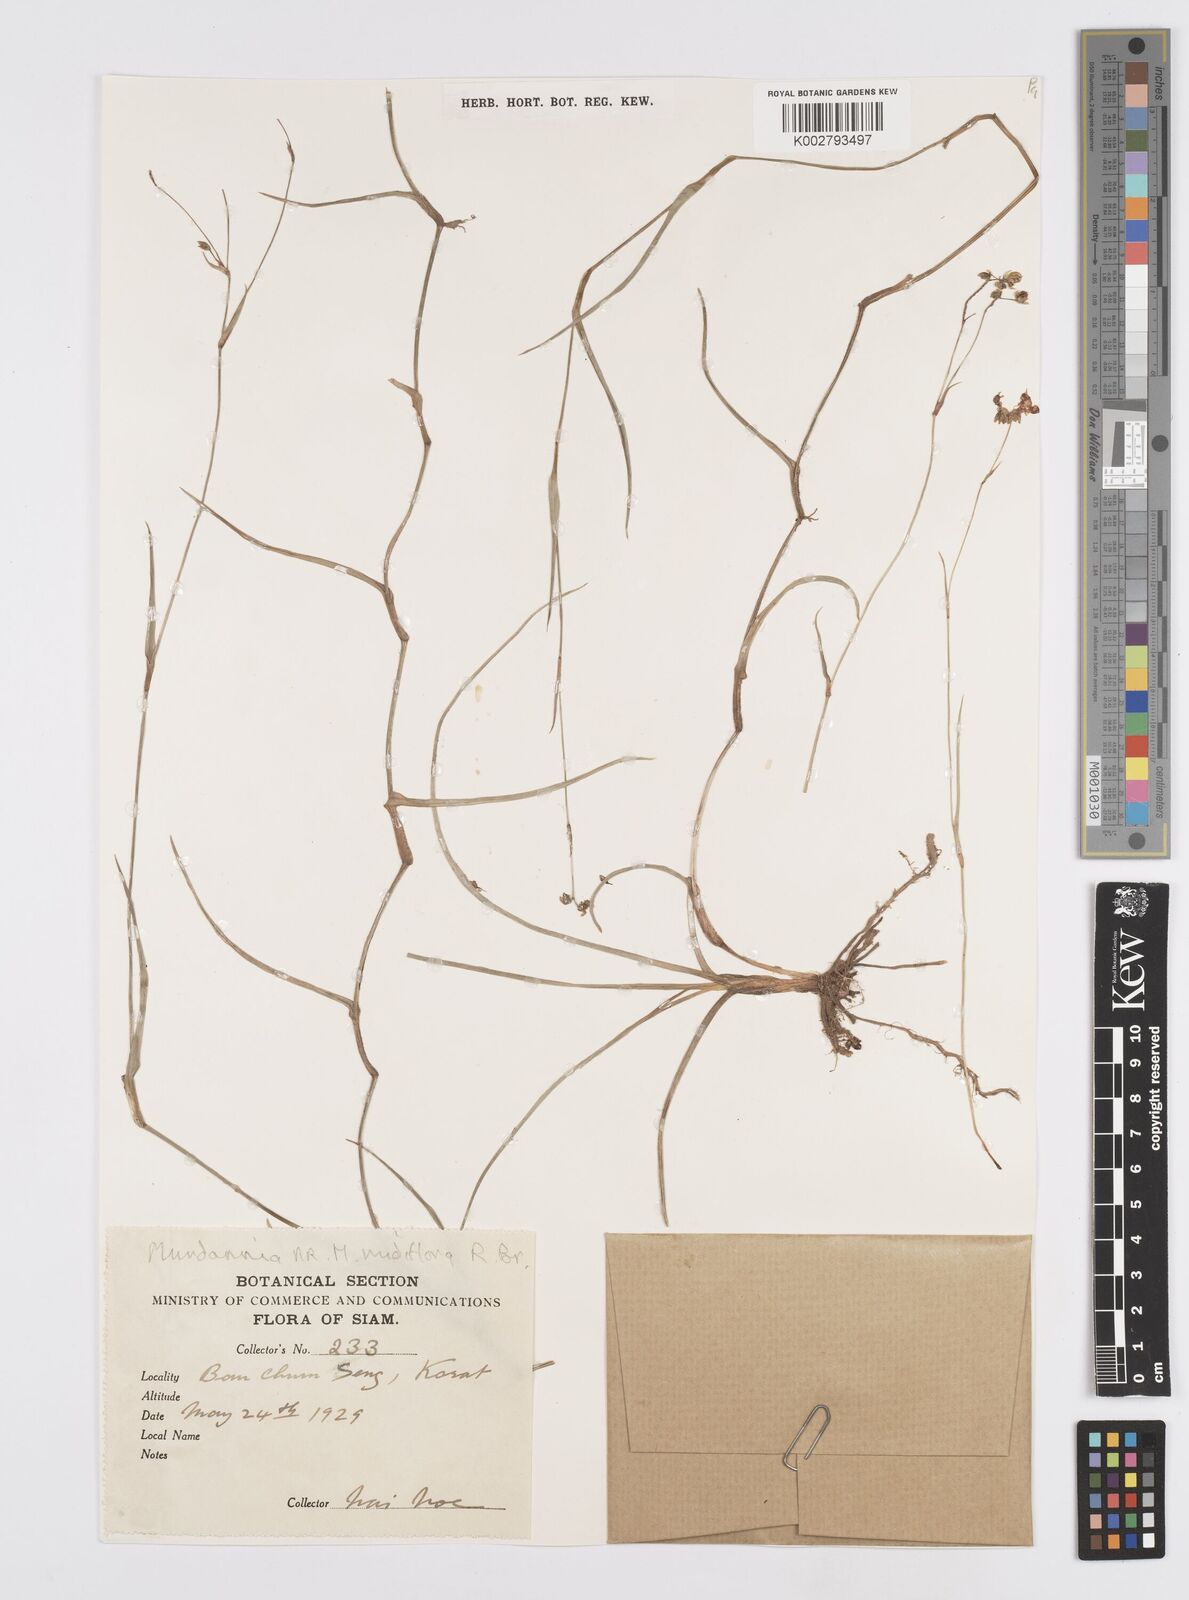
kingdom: Plantae
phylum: Tracheophyta
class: Liliopsida
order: Commelinales
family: Commelinaceae
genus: Murdannia
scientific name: Murdannia nudiflora
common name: Nakedstem dewflower
